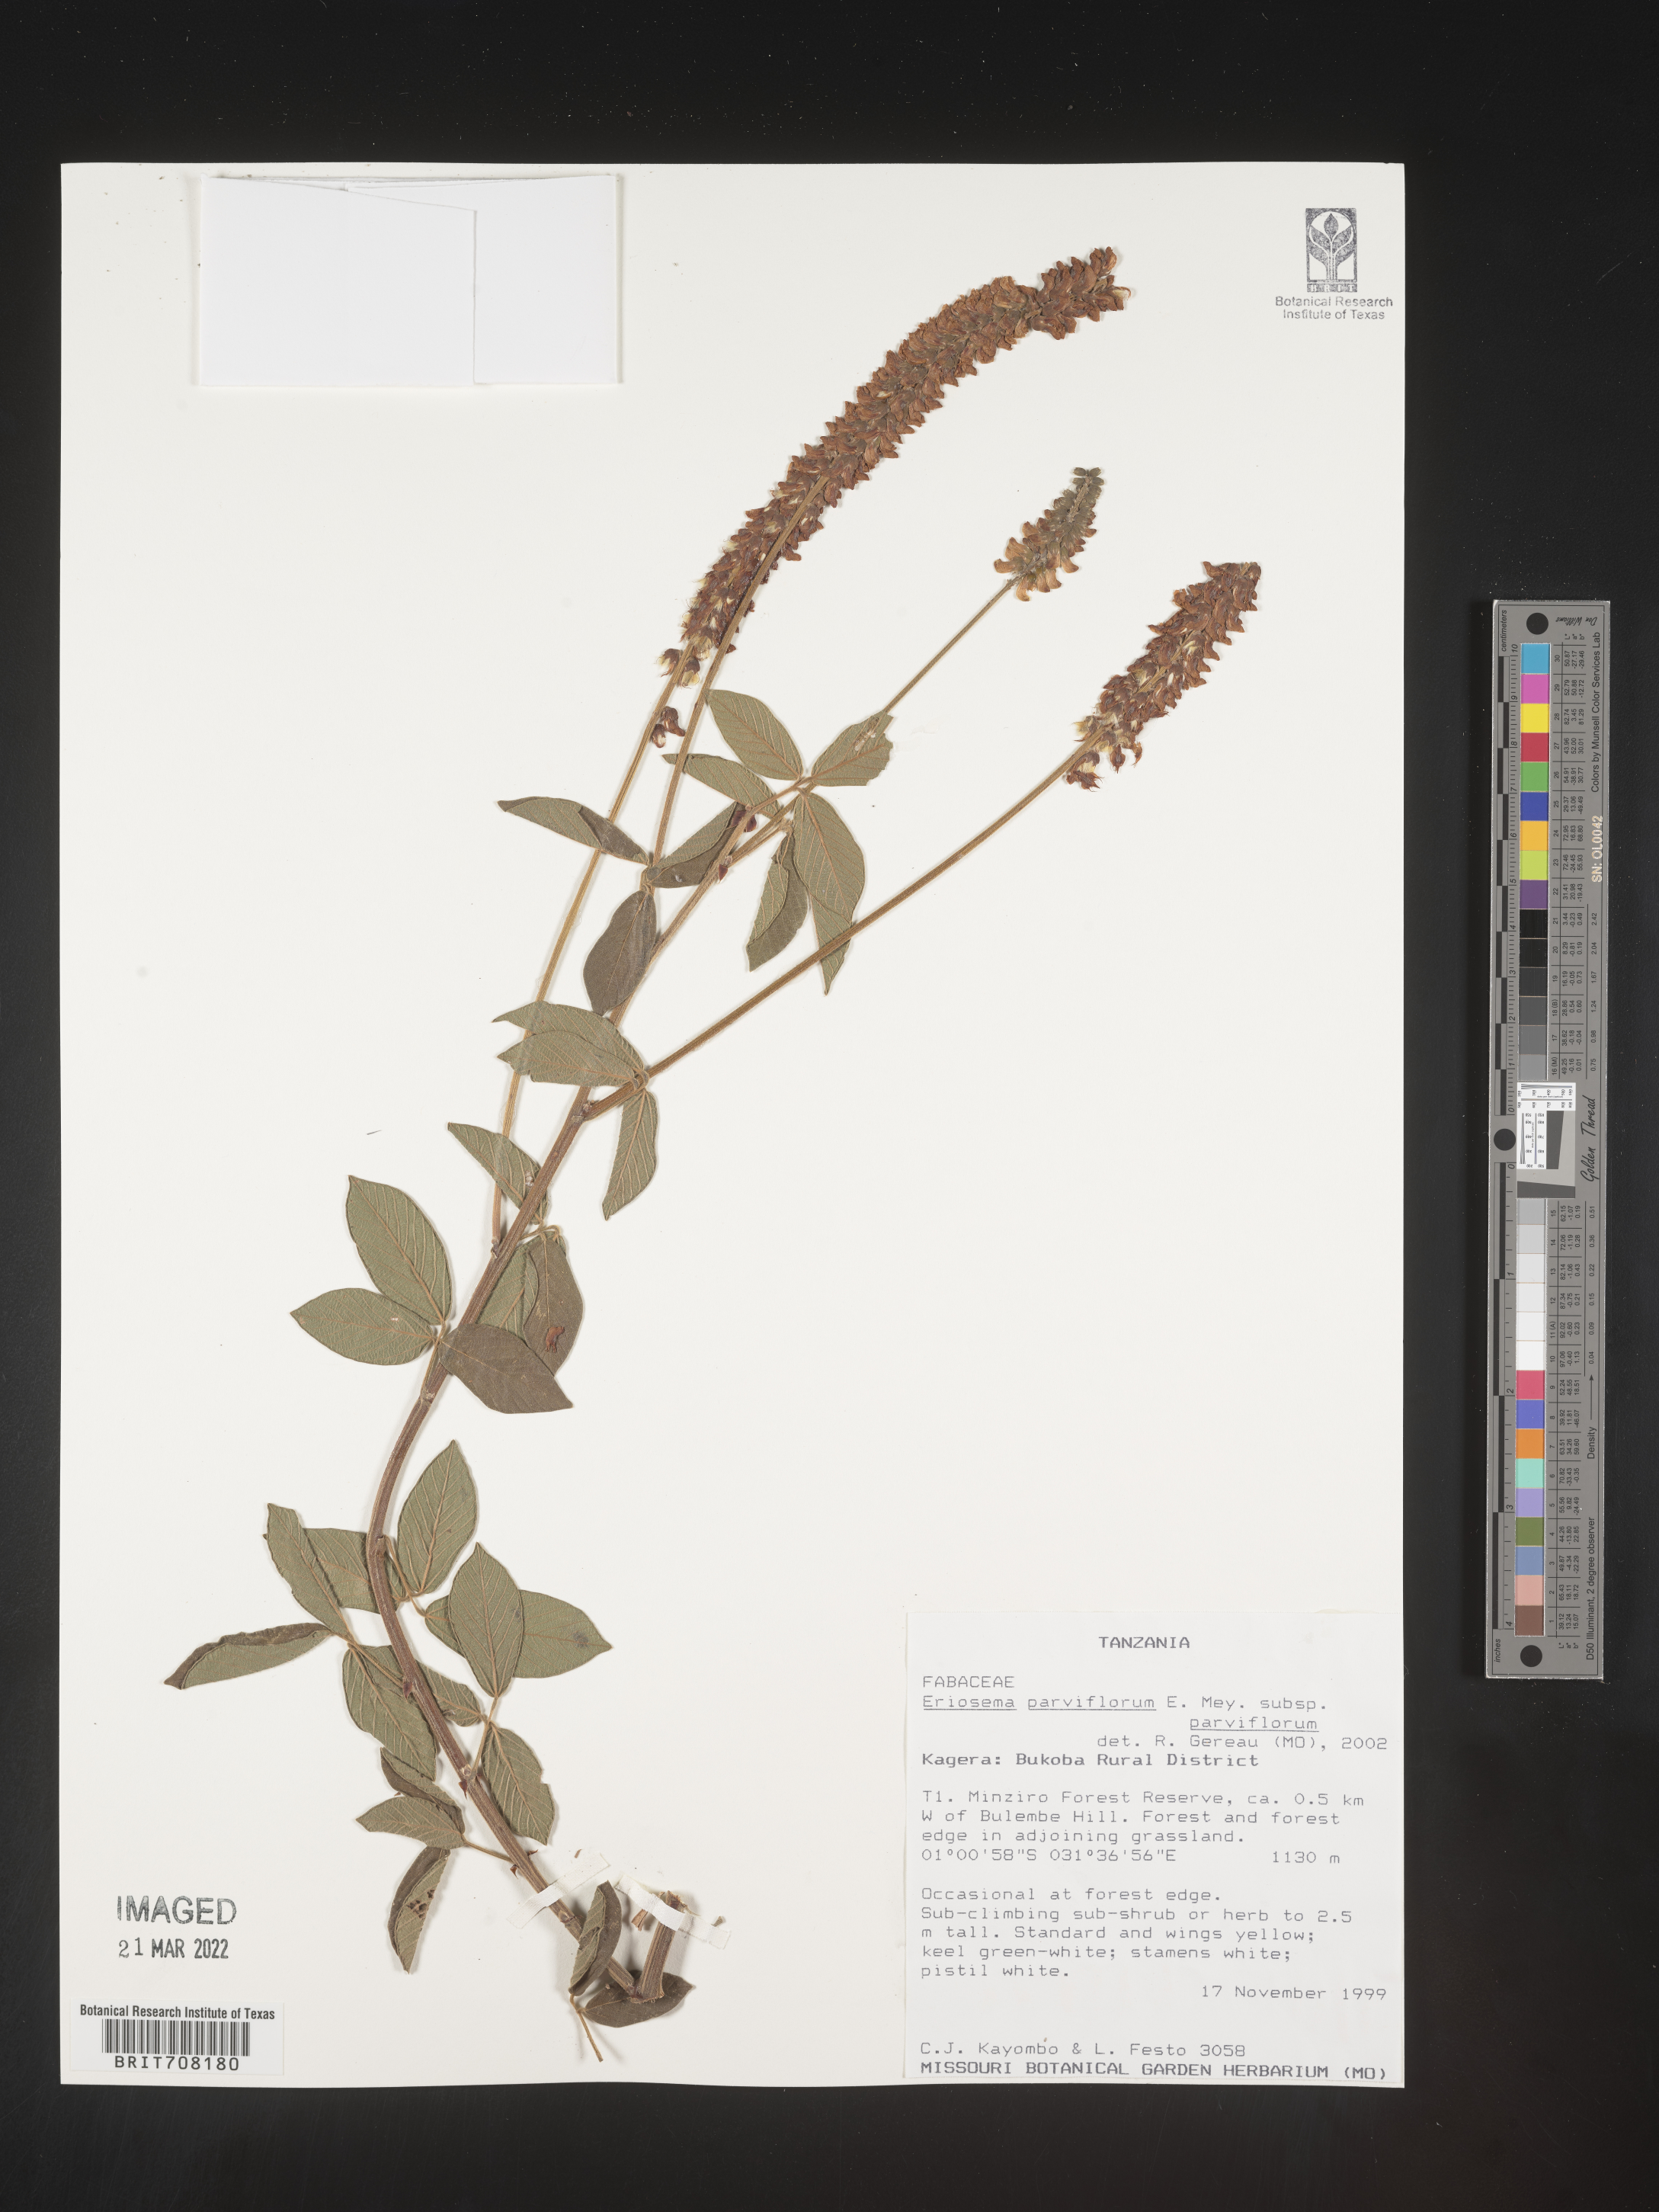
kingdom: Plantae
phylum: Tracheophyta
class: Magnoliopsida
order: Fabales
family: Fabaceae
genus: Eriosema
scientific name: Eriosema
